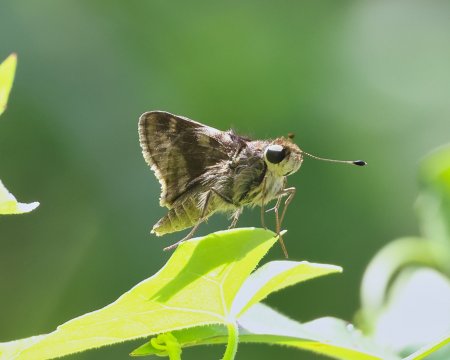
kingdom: Animalia
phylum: Arthropoda
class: Insecta
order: Lepidoptera
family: Hesperiidae
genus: Pompeius
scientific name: Pompeius pompeius
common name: Pompeius Skipper
